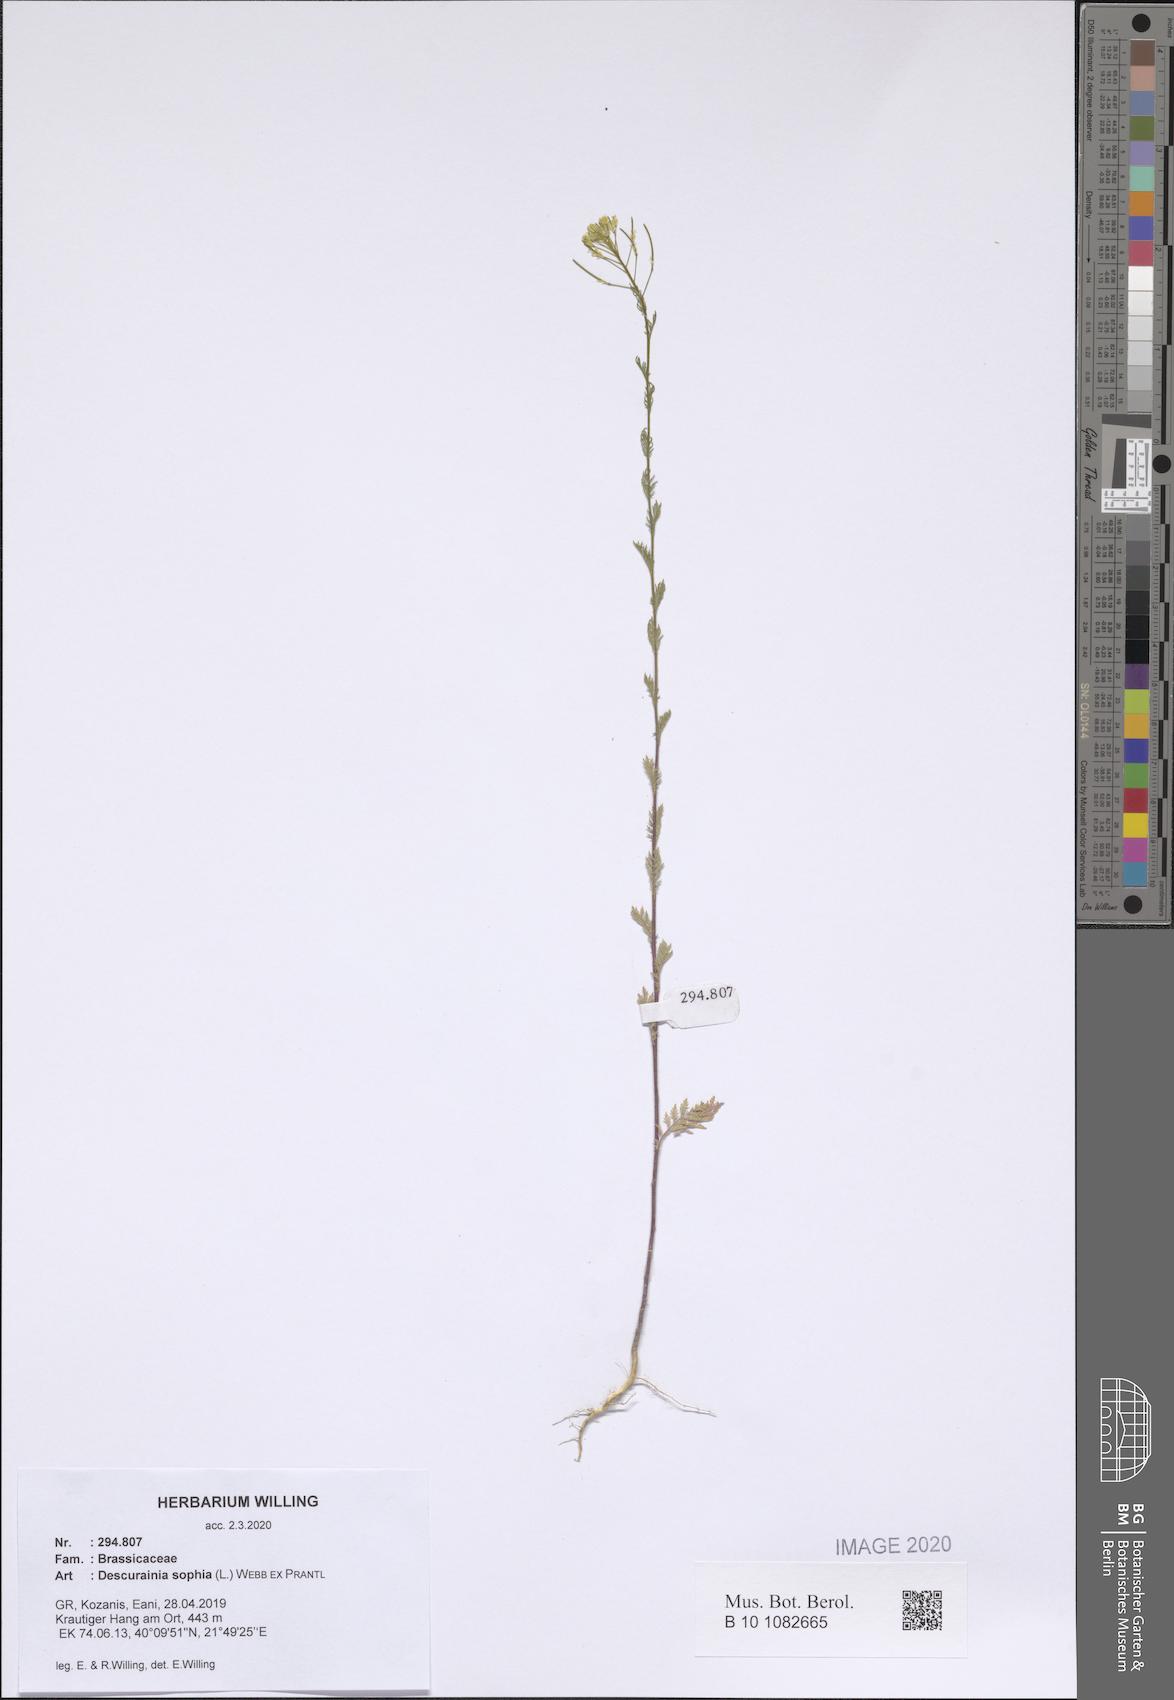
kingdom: Plantae
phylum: Tracheophyta
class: Magnoliopsida
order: Brassicales
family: Brassicaceae
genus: Descurainia
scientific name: Descurainia sophia
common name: Flixweed
